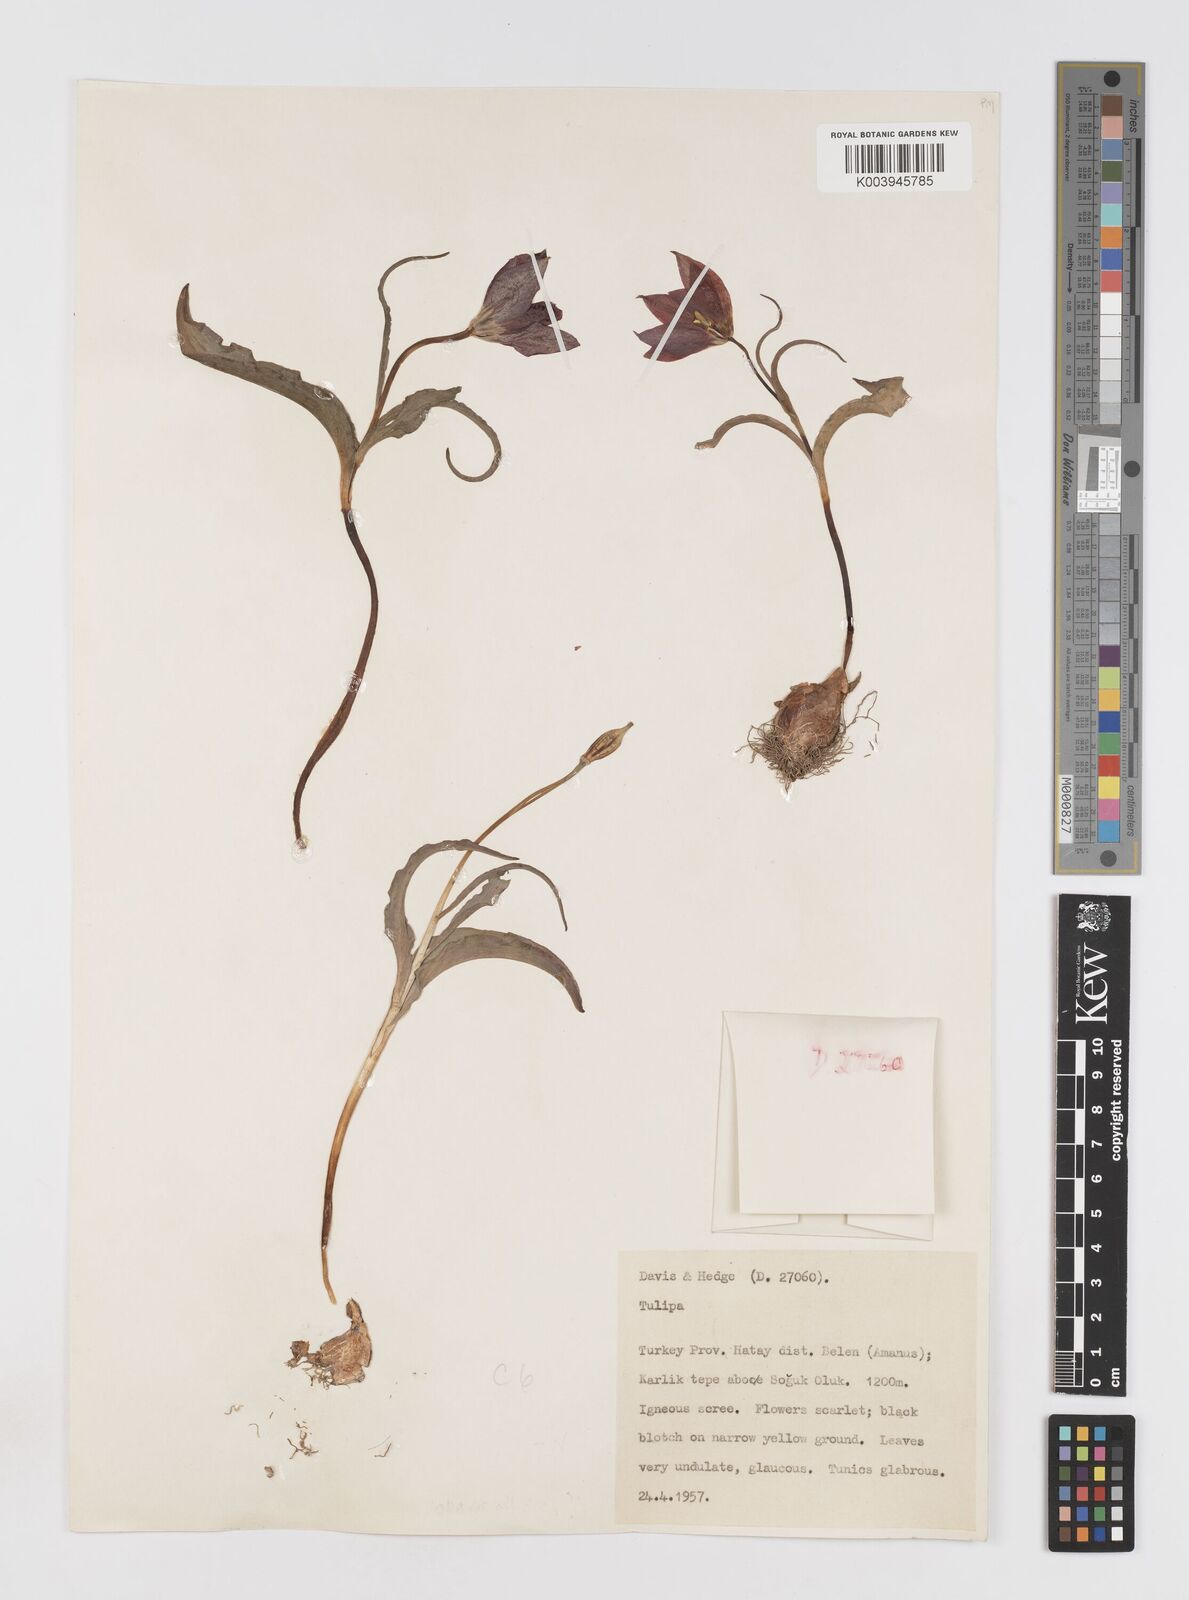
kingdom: Plantae
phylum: Tracheophyta
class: Liliopsida
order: Liliales
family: Liliaceae
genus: Tulipa
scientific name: Tulipa foliosa
